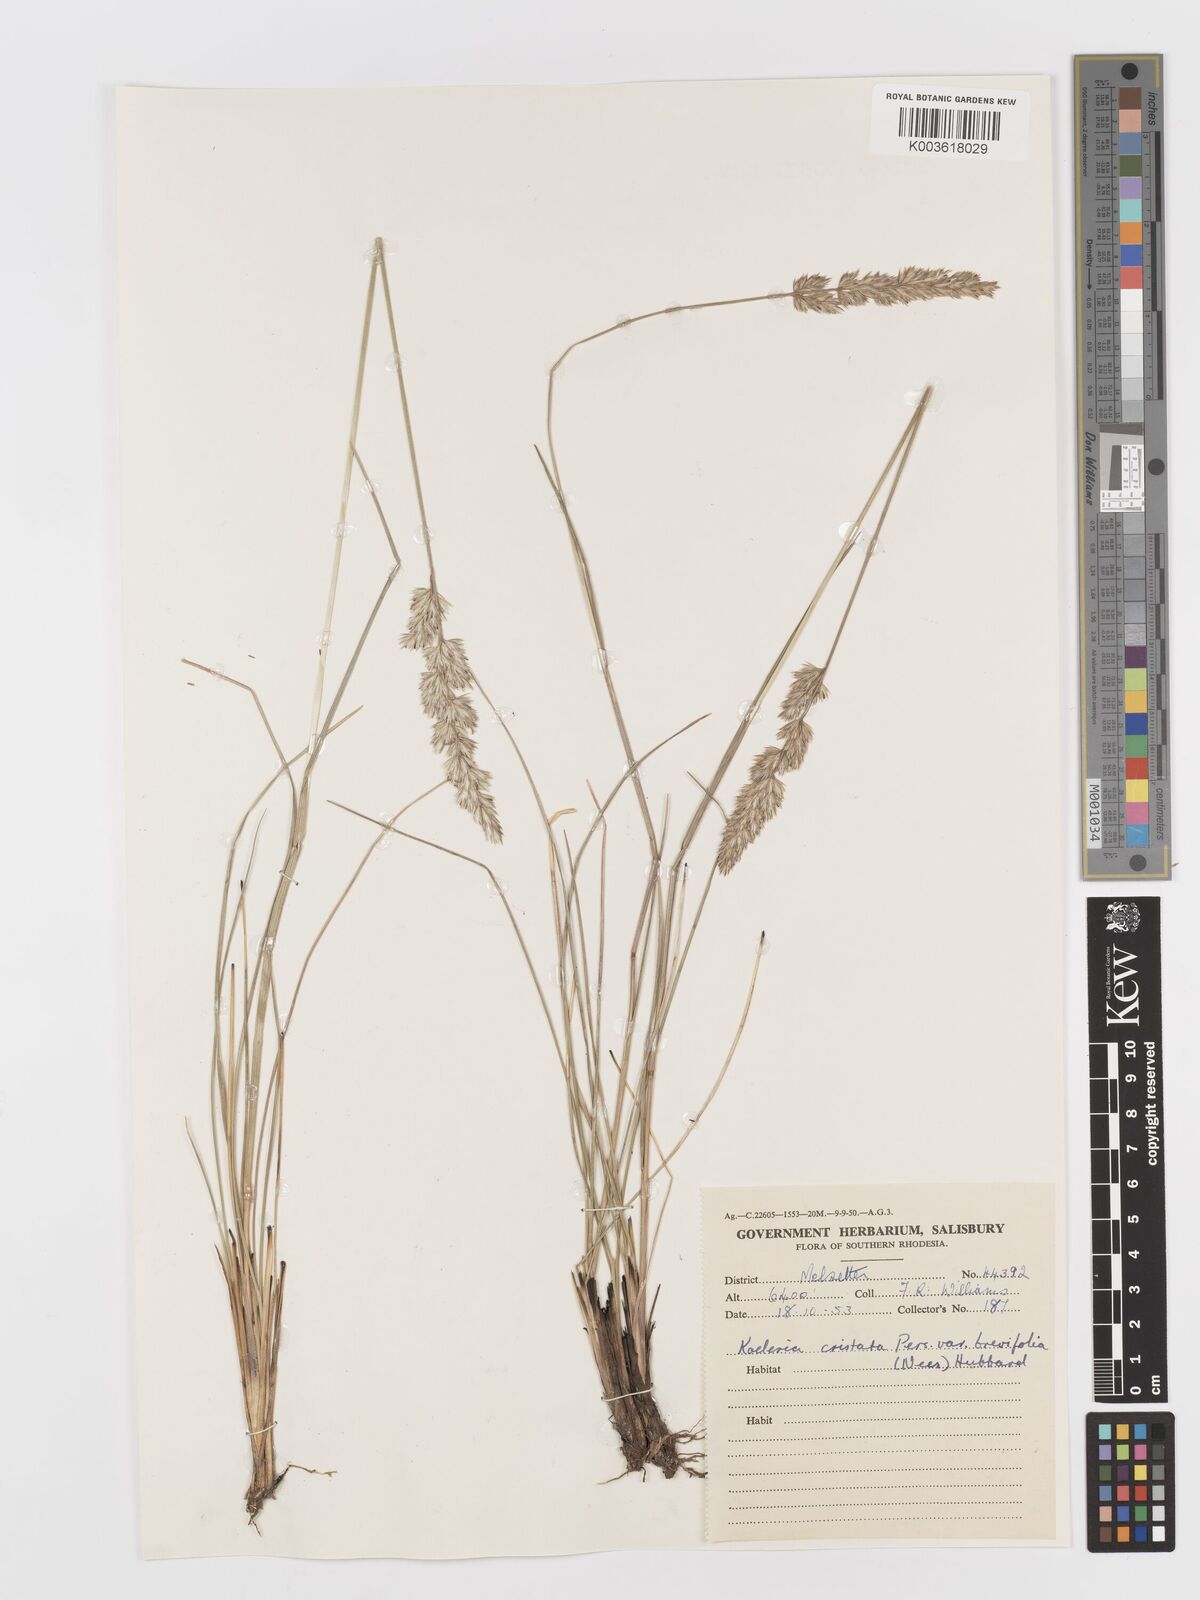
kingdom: Plantae
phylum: Tracheophyta
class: Liliopsida
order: Poales
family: Poaceae
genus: Koeleria
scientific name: Koeleria capensis
